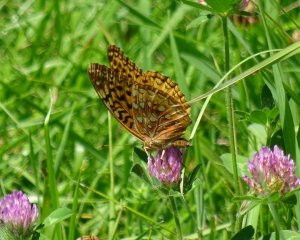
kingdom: Animalia
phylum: Arthropoda
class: Insecta
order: Lepidoptera
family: Nymphalidae
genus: Speyeria
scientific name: Speyeria cybele
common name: Great Spangled Fritillary
